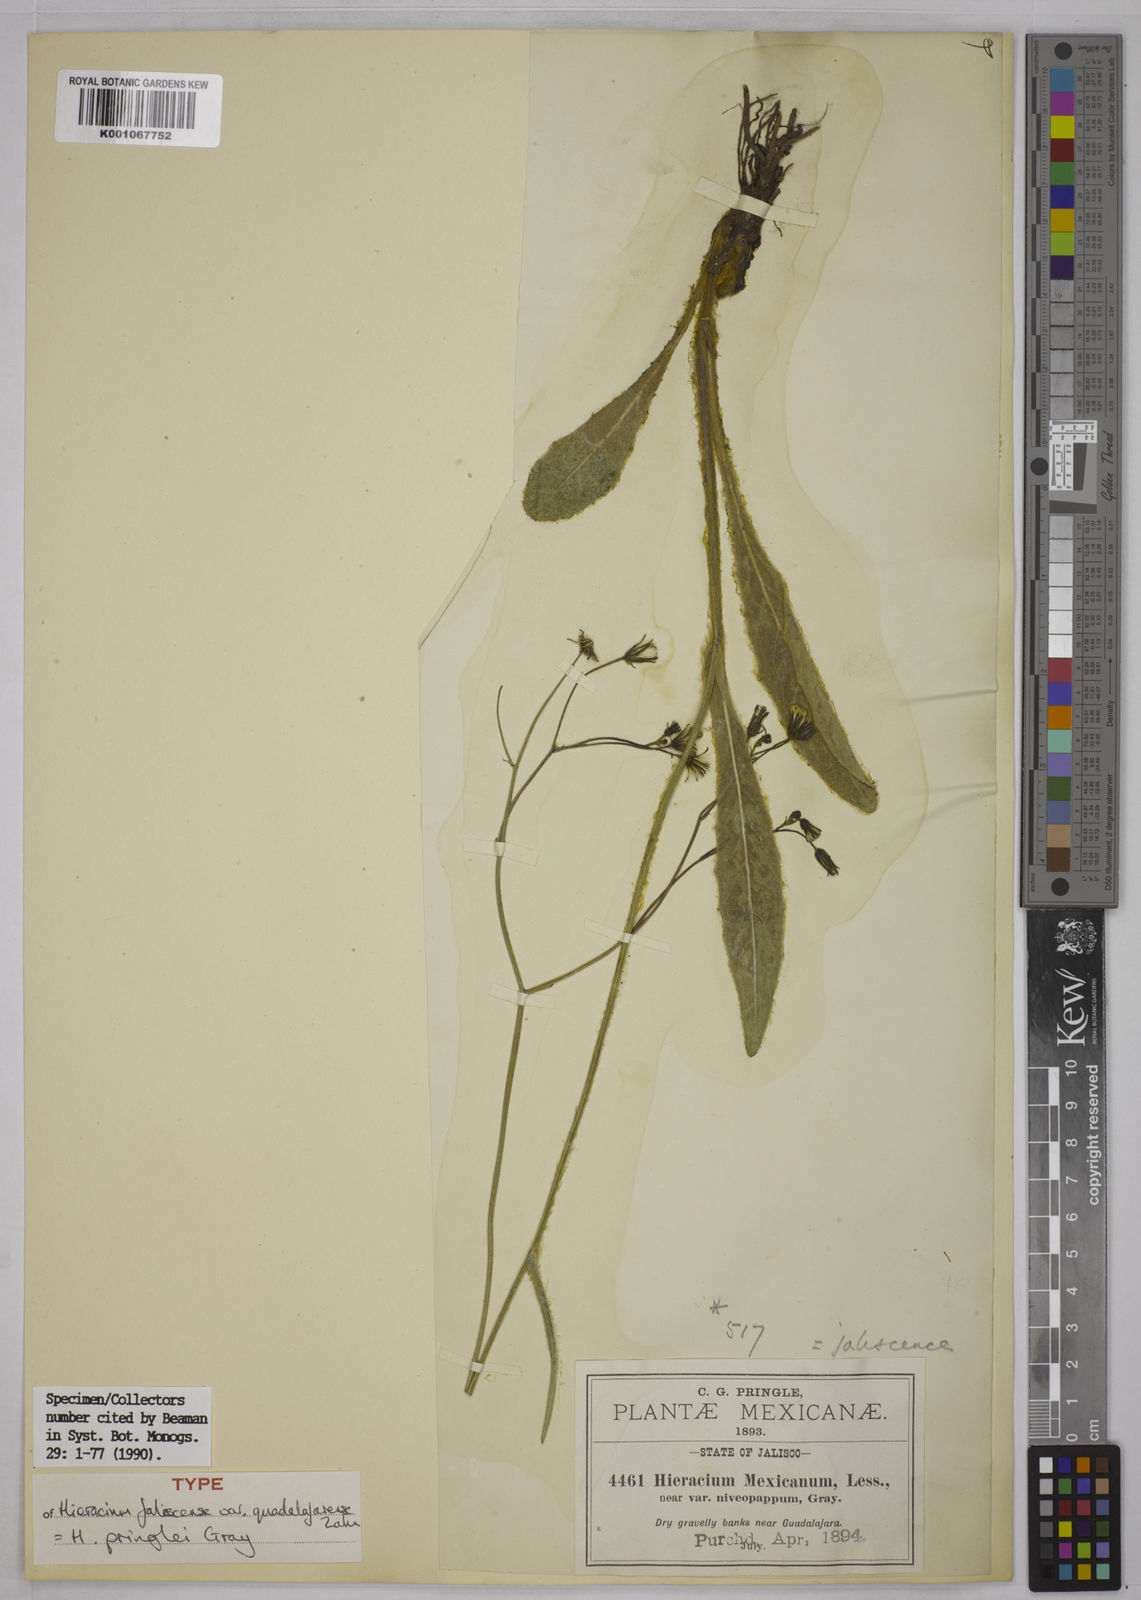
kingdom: Plantae
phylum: Tracheophyta
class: Magnoliopsida
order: Asterales
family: Asteraceae
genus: Hieracium
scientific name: Hieracium pringlei
